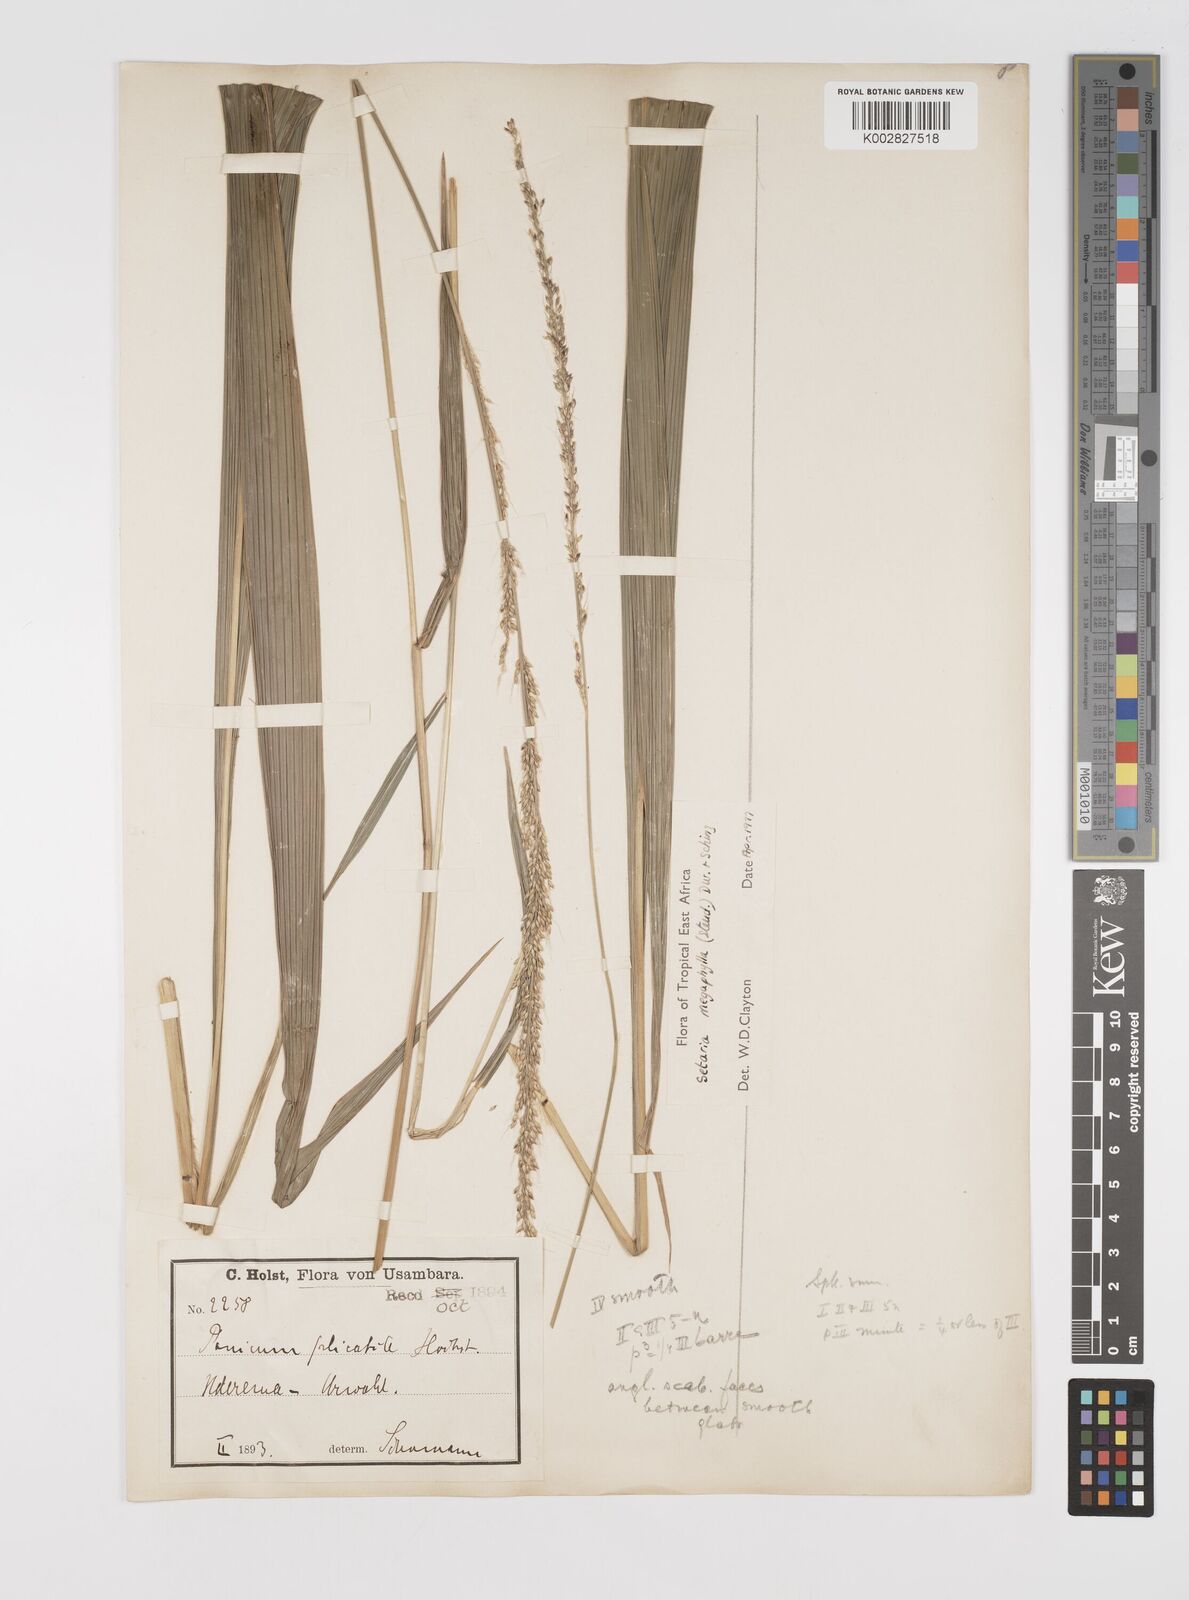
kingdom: Plantae
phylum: Tracheophyta
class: Liliopsida
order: Poales
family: Poaceae
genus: Setaria
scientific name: Setaria megaphylla
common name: Bigleaf bristlegrass
